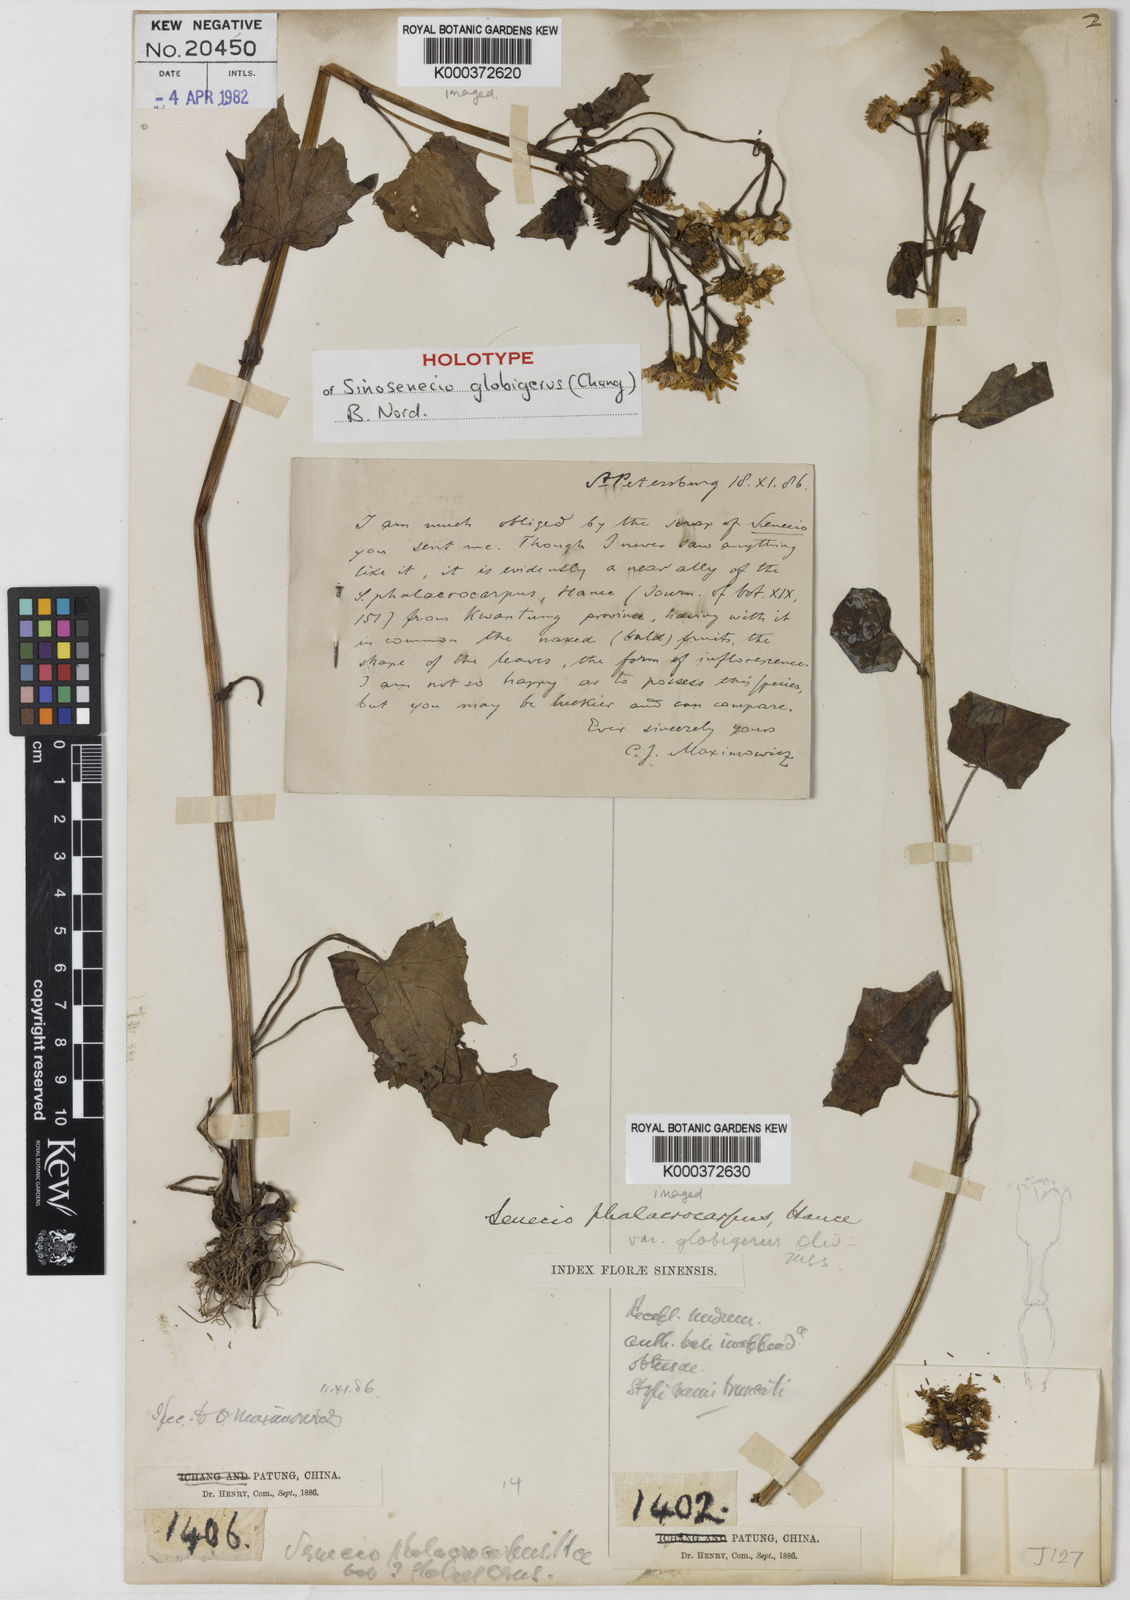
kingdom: Plantae
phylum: Tracheophyta
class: Magnoliopsida
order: Asterales
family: Asteraceae
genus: Sinosenecio
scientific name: Sinosenecio globiger
